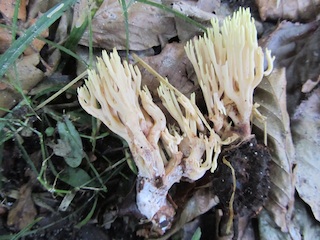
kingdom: Fungi
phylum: Basidiomycota
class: Agaricomycetes
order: Gomphales
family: Gomphaceae
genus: Ramaria
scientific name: Ramaria stricta
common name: rank koralsvamp
